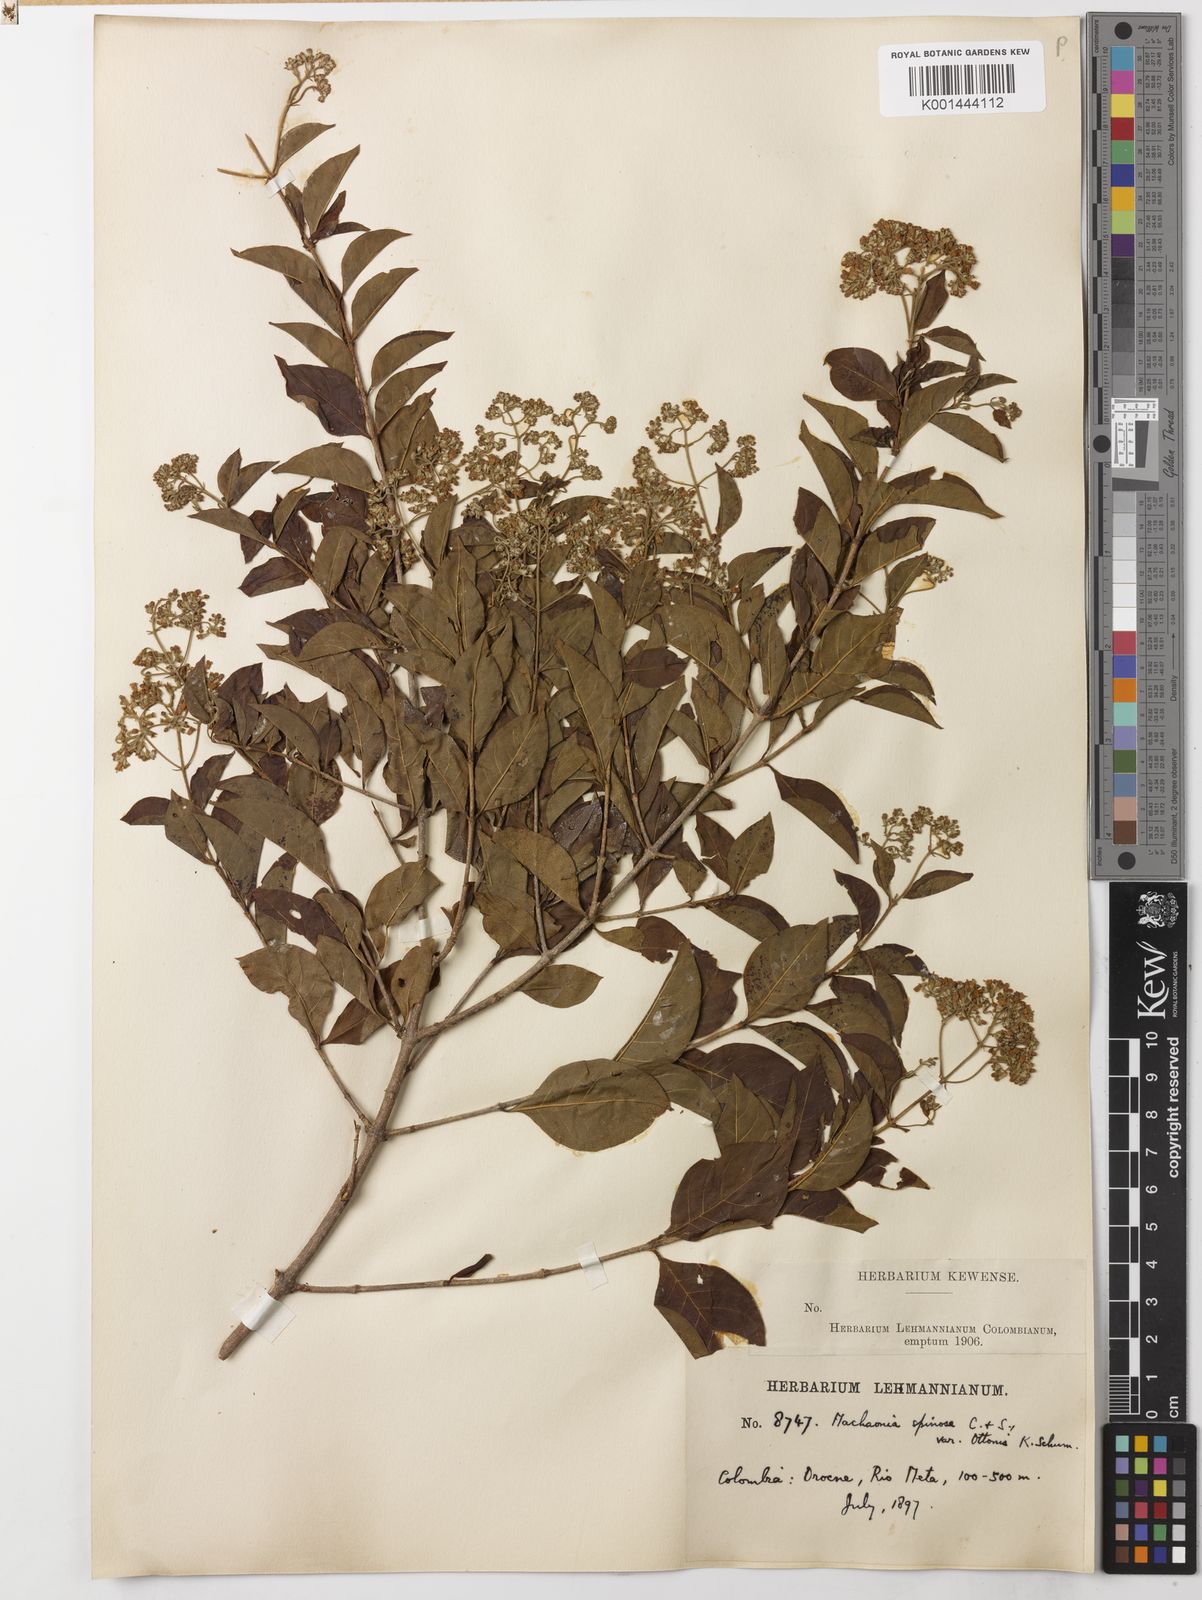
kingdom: Plantae
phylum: Tracheophyta
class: Magnoliopsida
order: Gentianales
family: Rubiaceae
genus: Machaonia
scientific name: Machaonia ottonis
